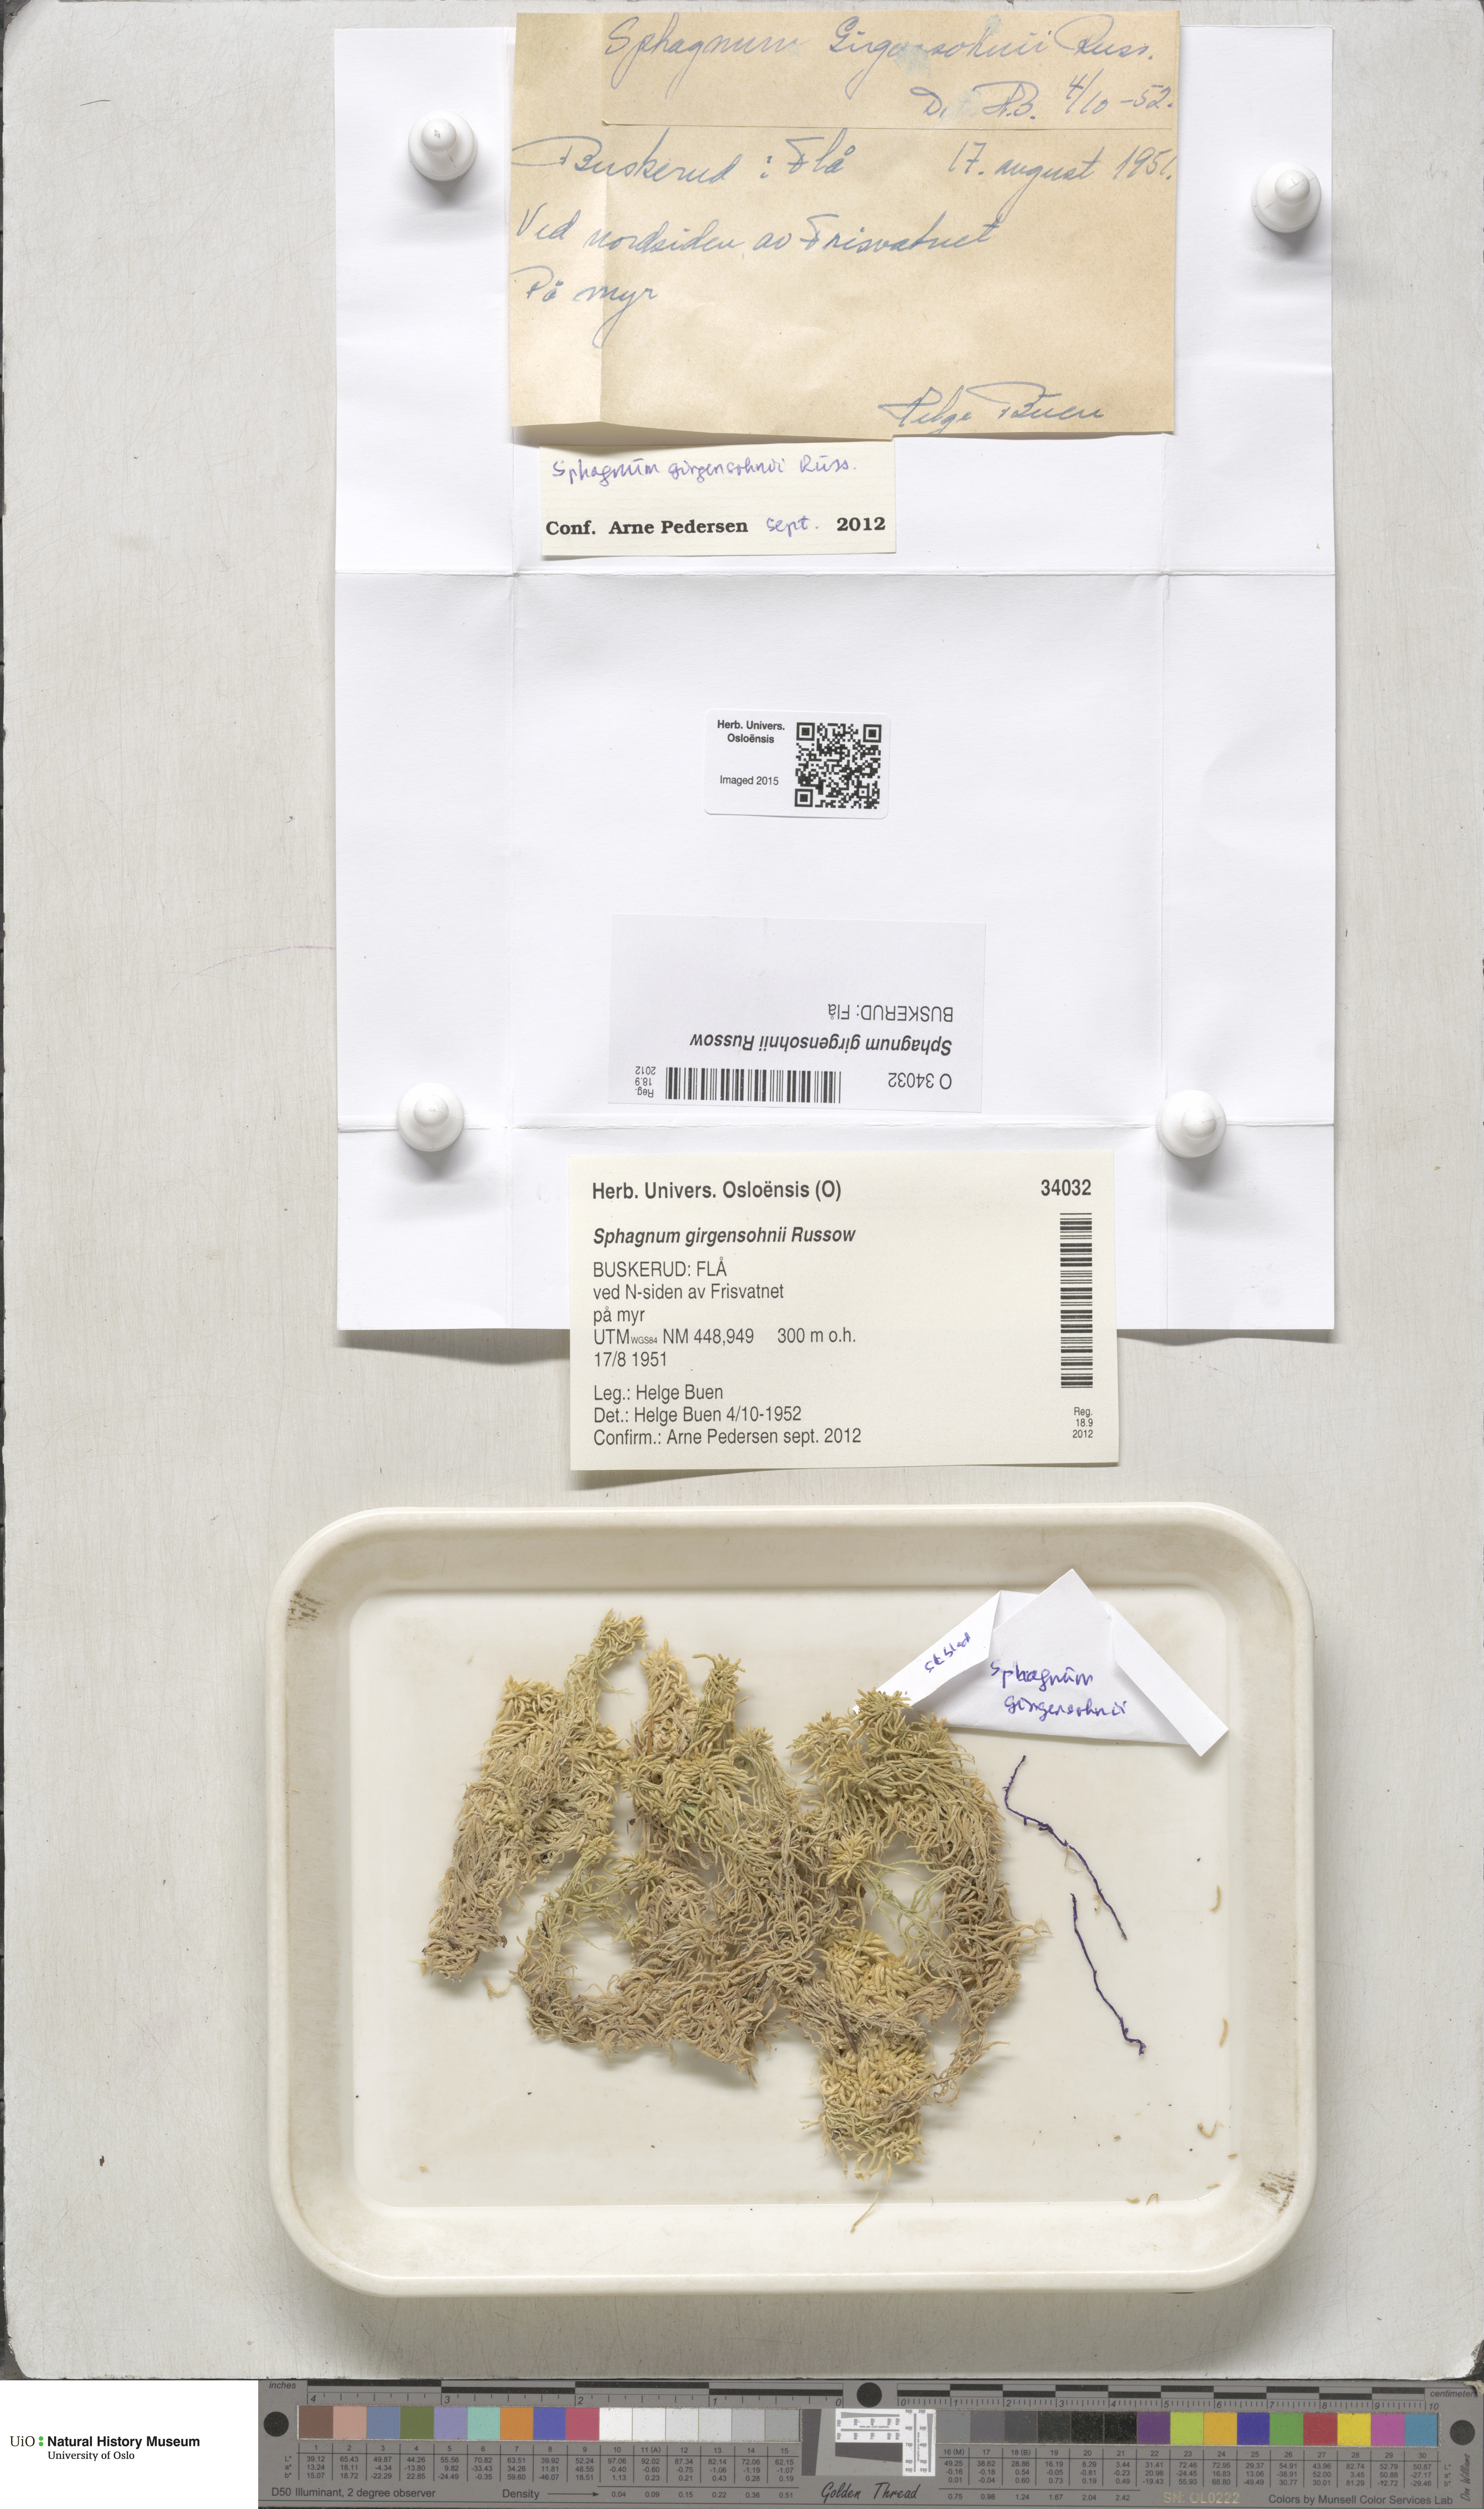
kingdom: Plantae
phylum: Bryophyta
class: Sphagnopsida
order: Sphagnales
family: Sphagnaceae
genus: Sphagnum
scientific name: Sphagnum girgensohnii
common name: Girgensohn's peat moss
